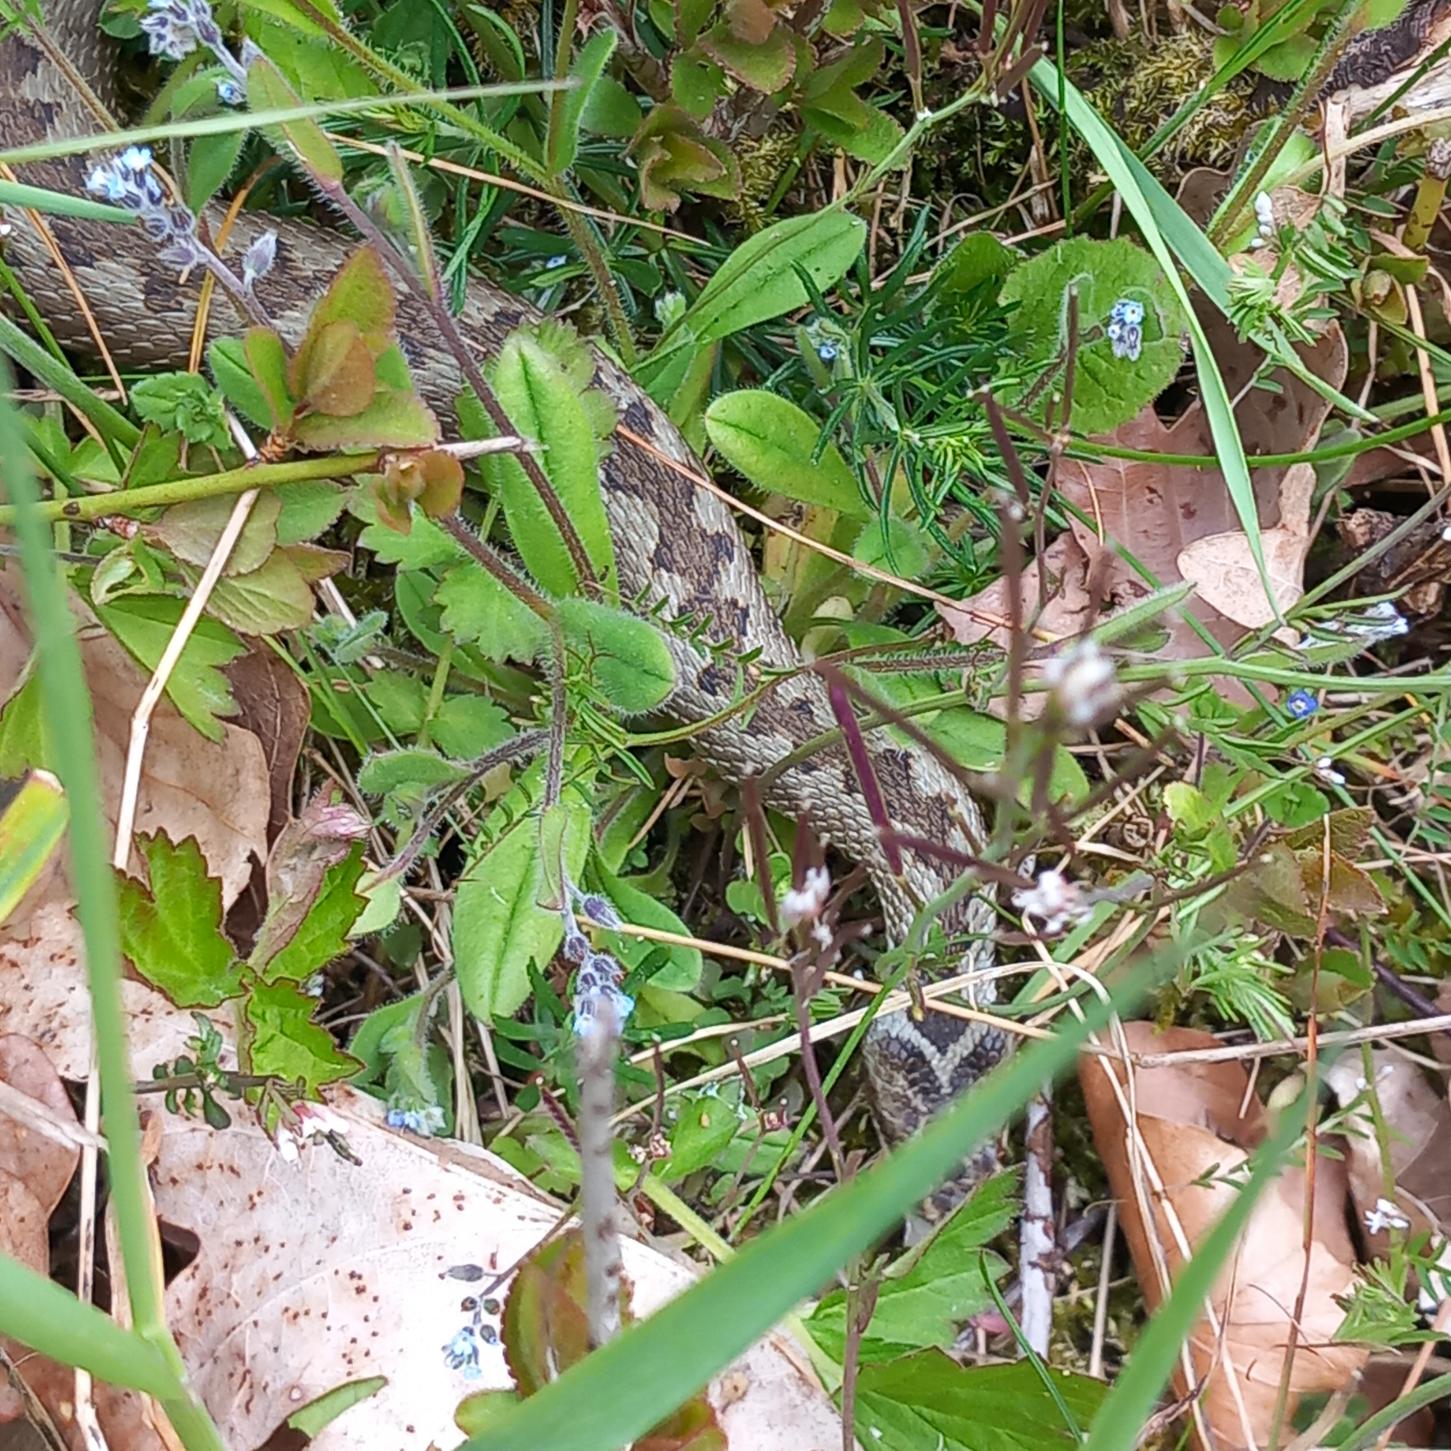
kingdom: Animalia
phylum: Chordata
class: Squamata
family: Viperidae
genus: Vipera
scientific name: Vipera berus
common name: Hugorm
